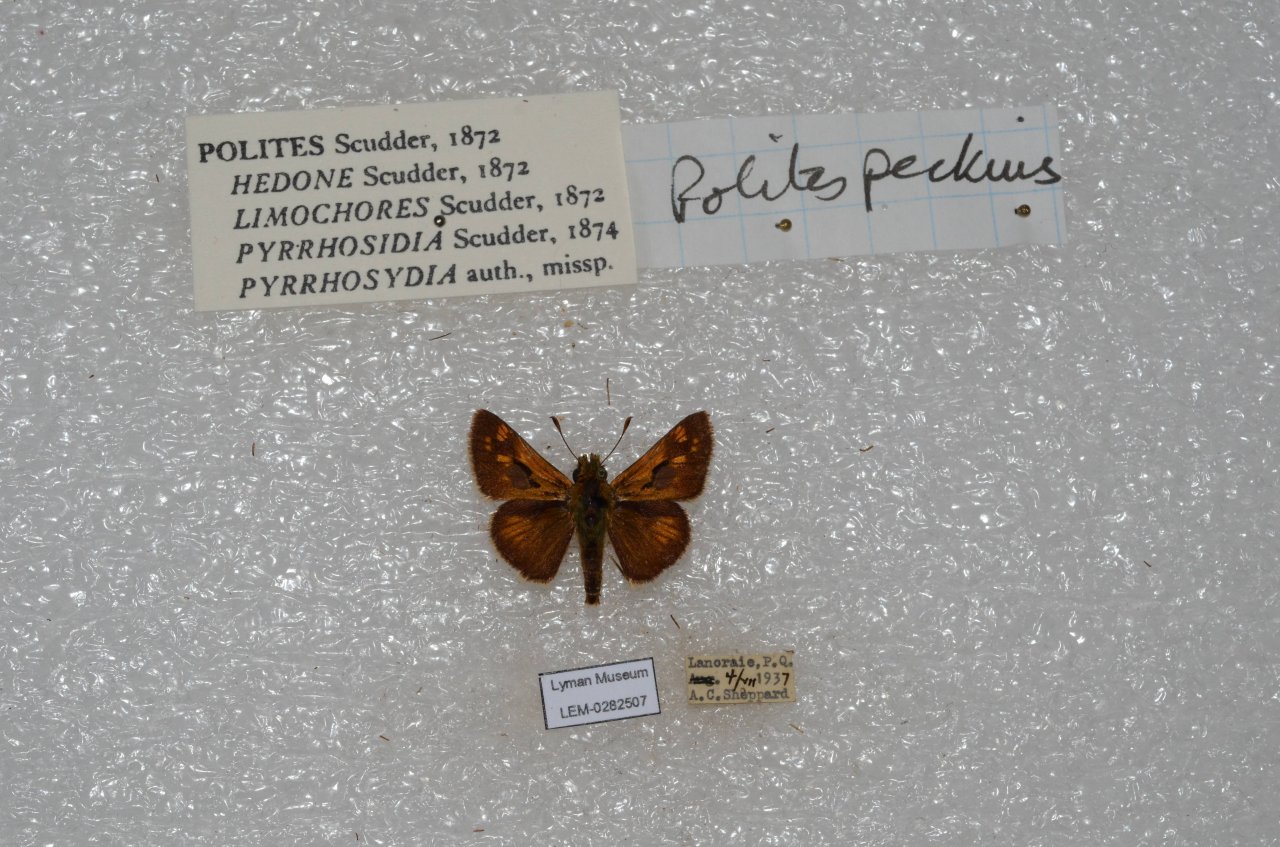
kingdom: Animalia
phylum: Arthropoda
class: Insecta
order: Lepidoptera
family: Hesperiidae
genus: Polites
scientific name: Polites coras
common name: Peck's Skipper
